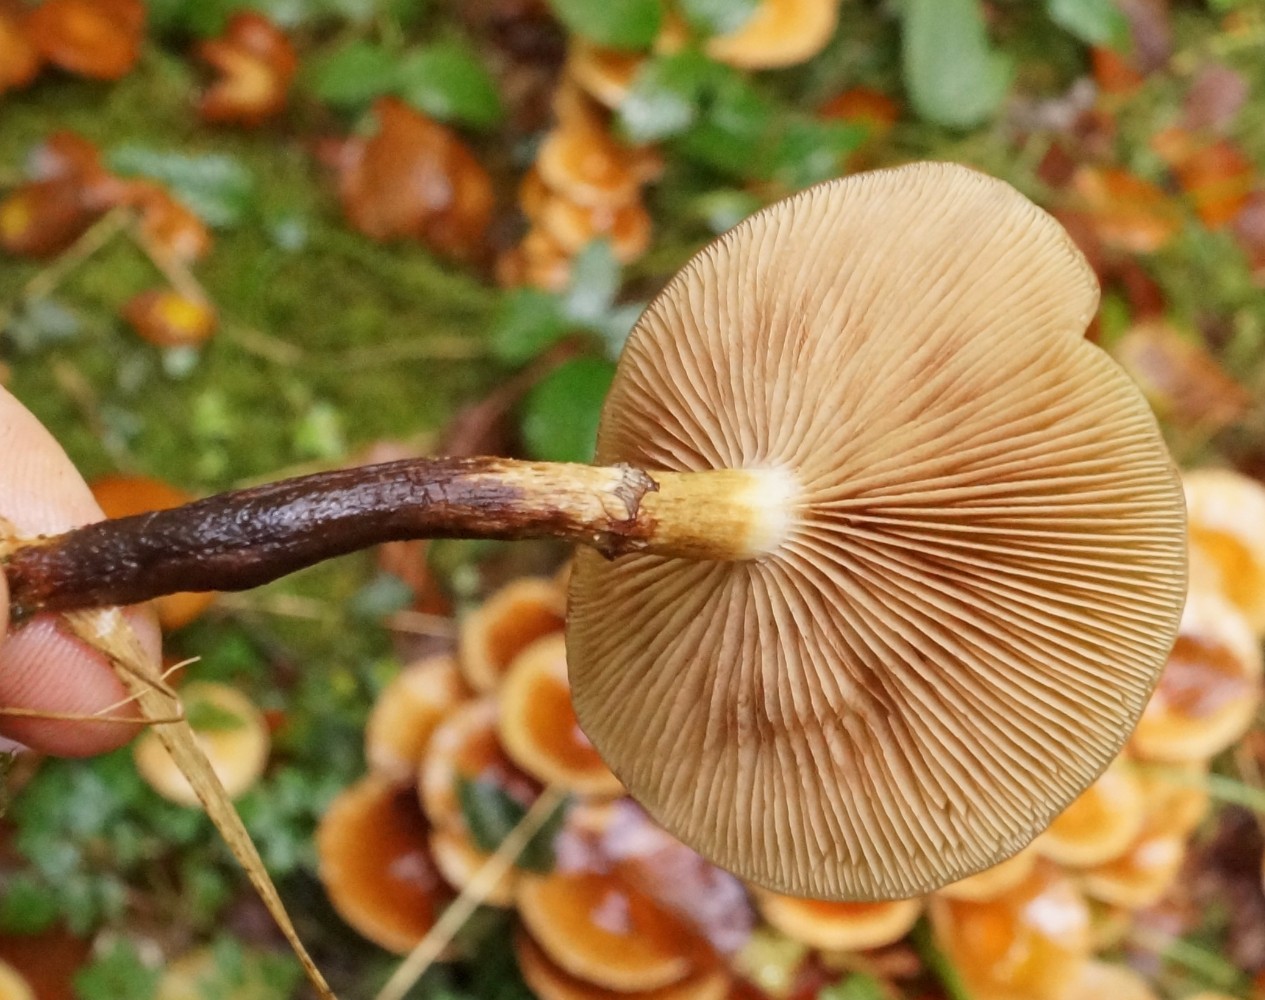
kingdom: Fungi
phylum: Basidiomycota
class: Agaricomycetes
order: Agaricales
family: Strophariaceae
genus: Kuehneromyces
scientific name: Kuehneromyces mutabilis
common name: foranderlig skælhat
